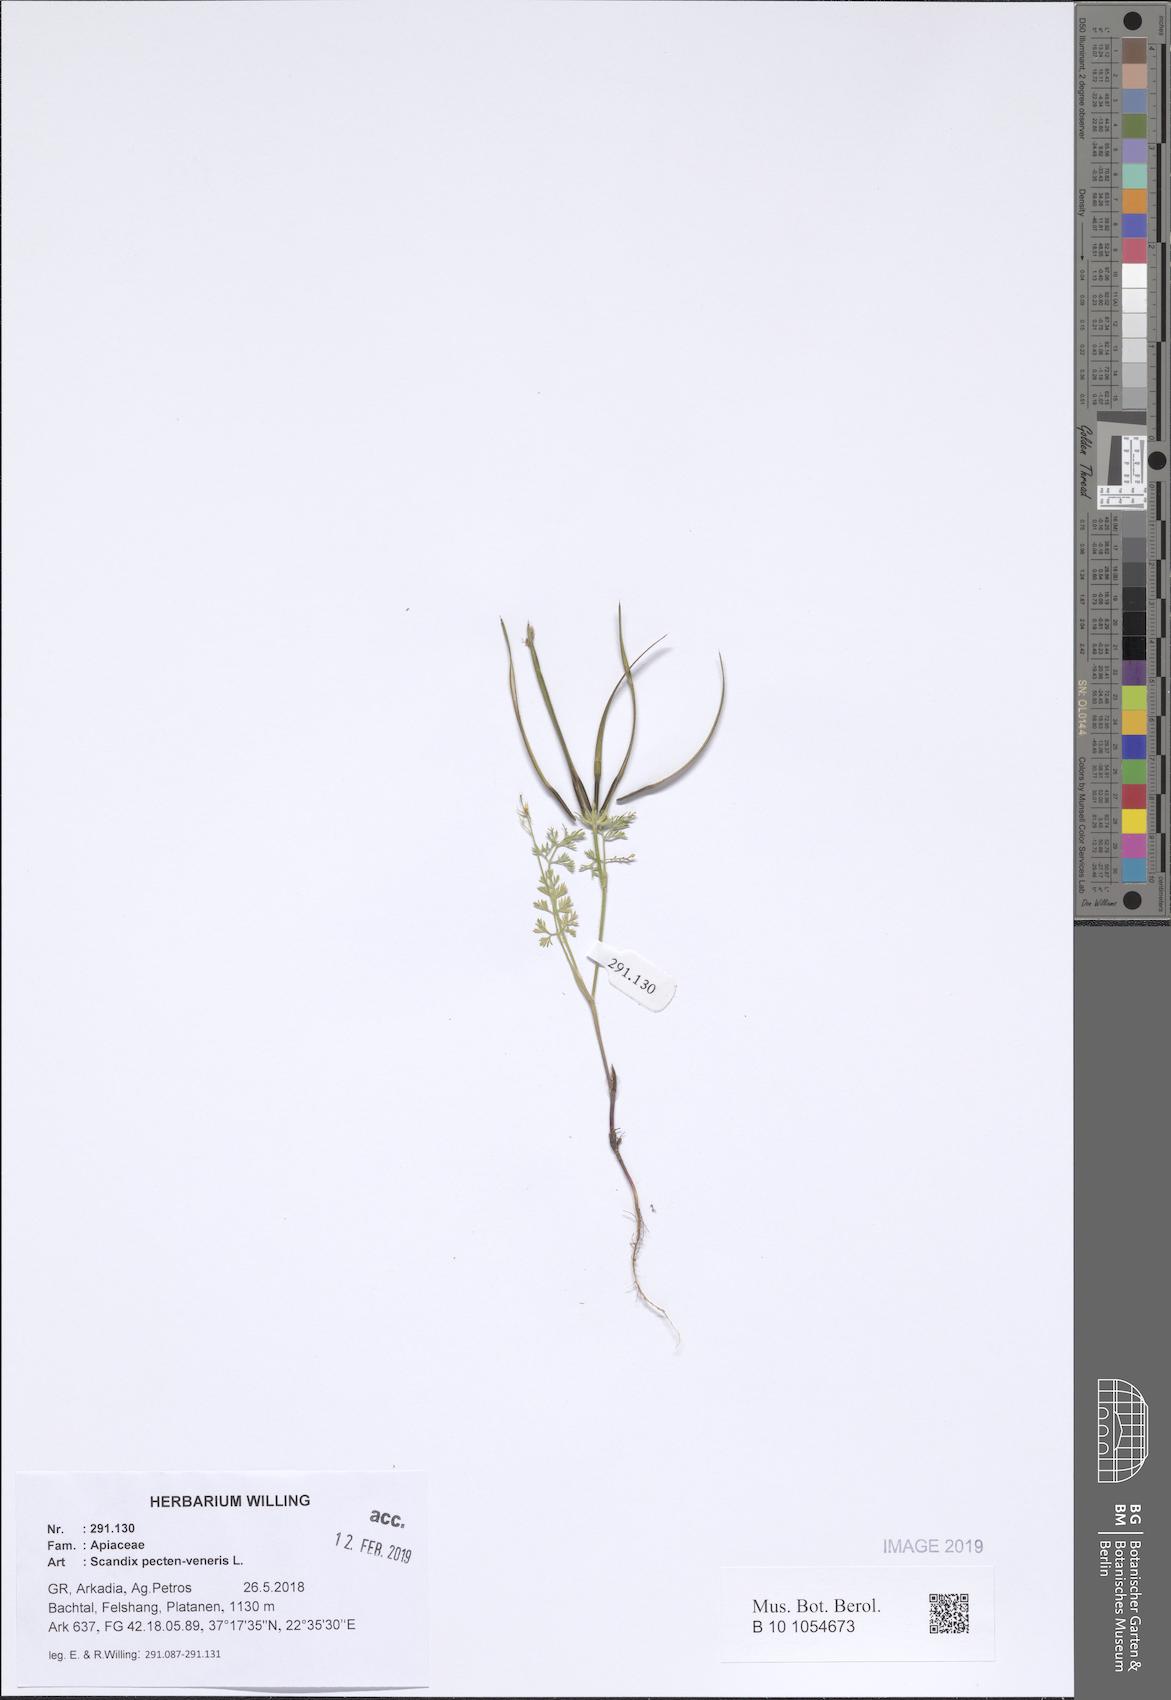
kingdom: Plantae
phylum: Tracheophyta
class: Magnoliopsida
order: Apiales
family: Apiaceae
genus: Scandix
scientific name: Scandix pecten-veneris
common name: Shepherd's-needle
